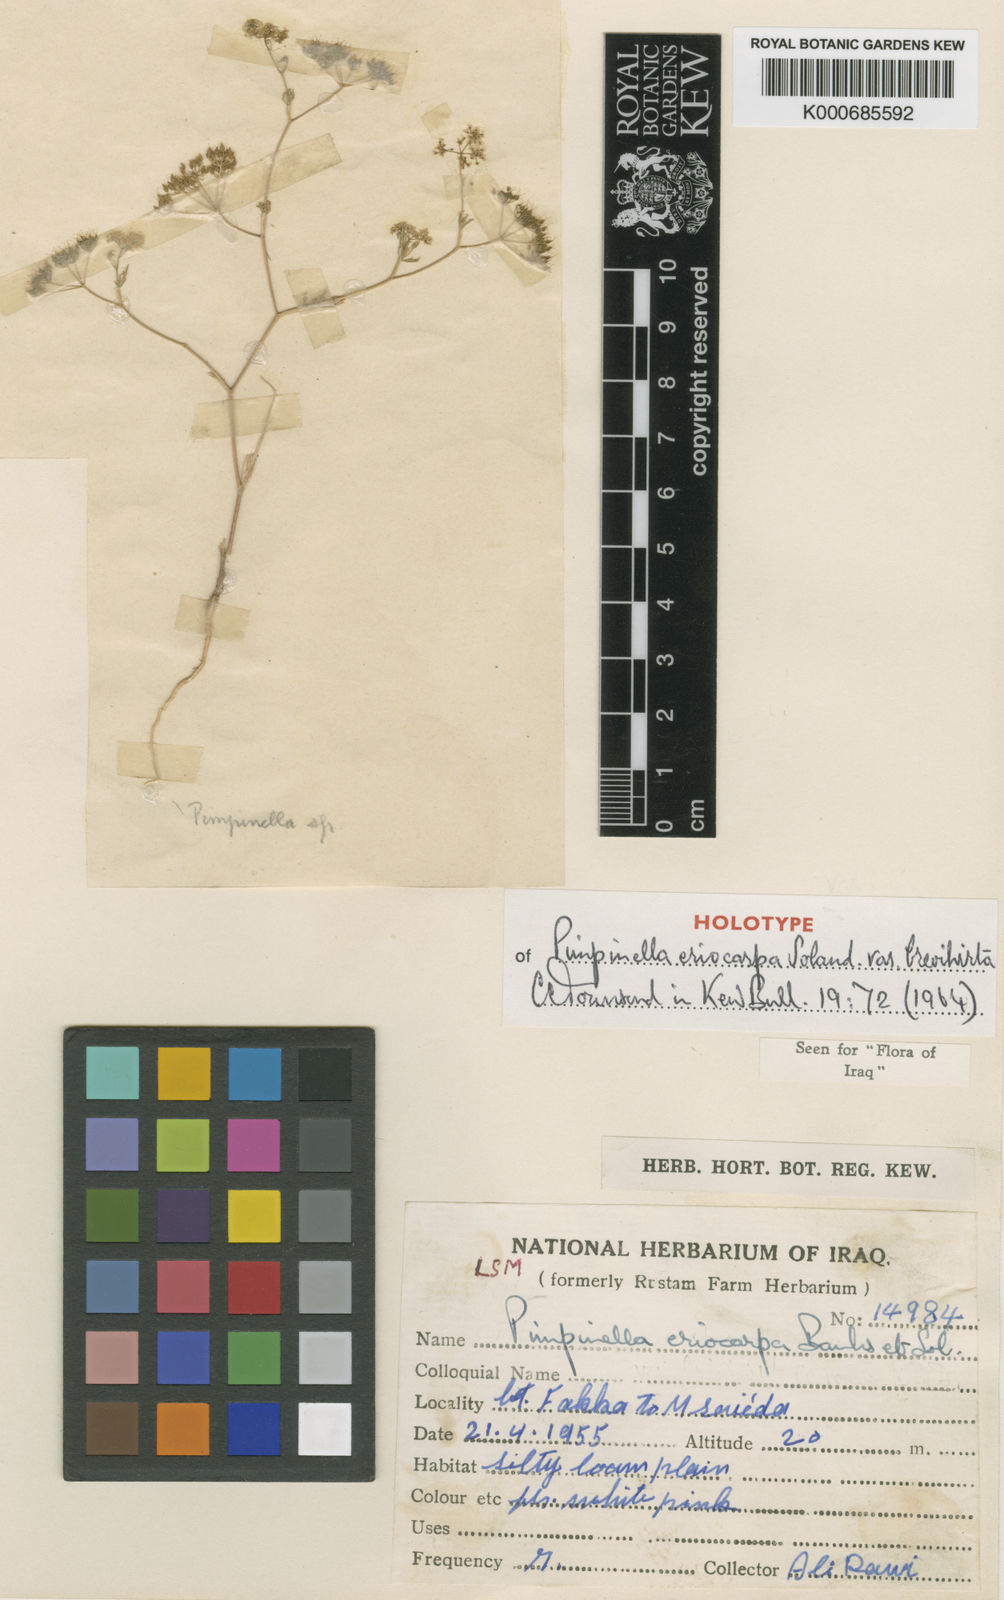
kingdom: Plantae
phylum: Tracheophyta
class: Magnoliopsida
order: Apiales
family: Apiaceae
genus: Pimpinella
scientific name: Pimpinella
